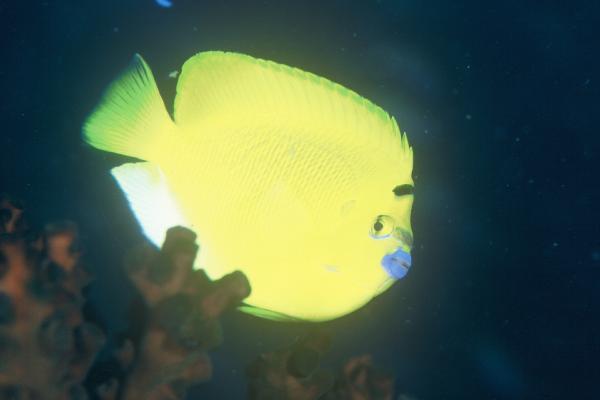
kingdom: Animalia
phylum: Chordata
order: Perciformes
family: Pomacanthidae
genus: Apolemichthys
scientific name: Apolemichthys trimaculatus
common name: Threespot angelfish
